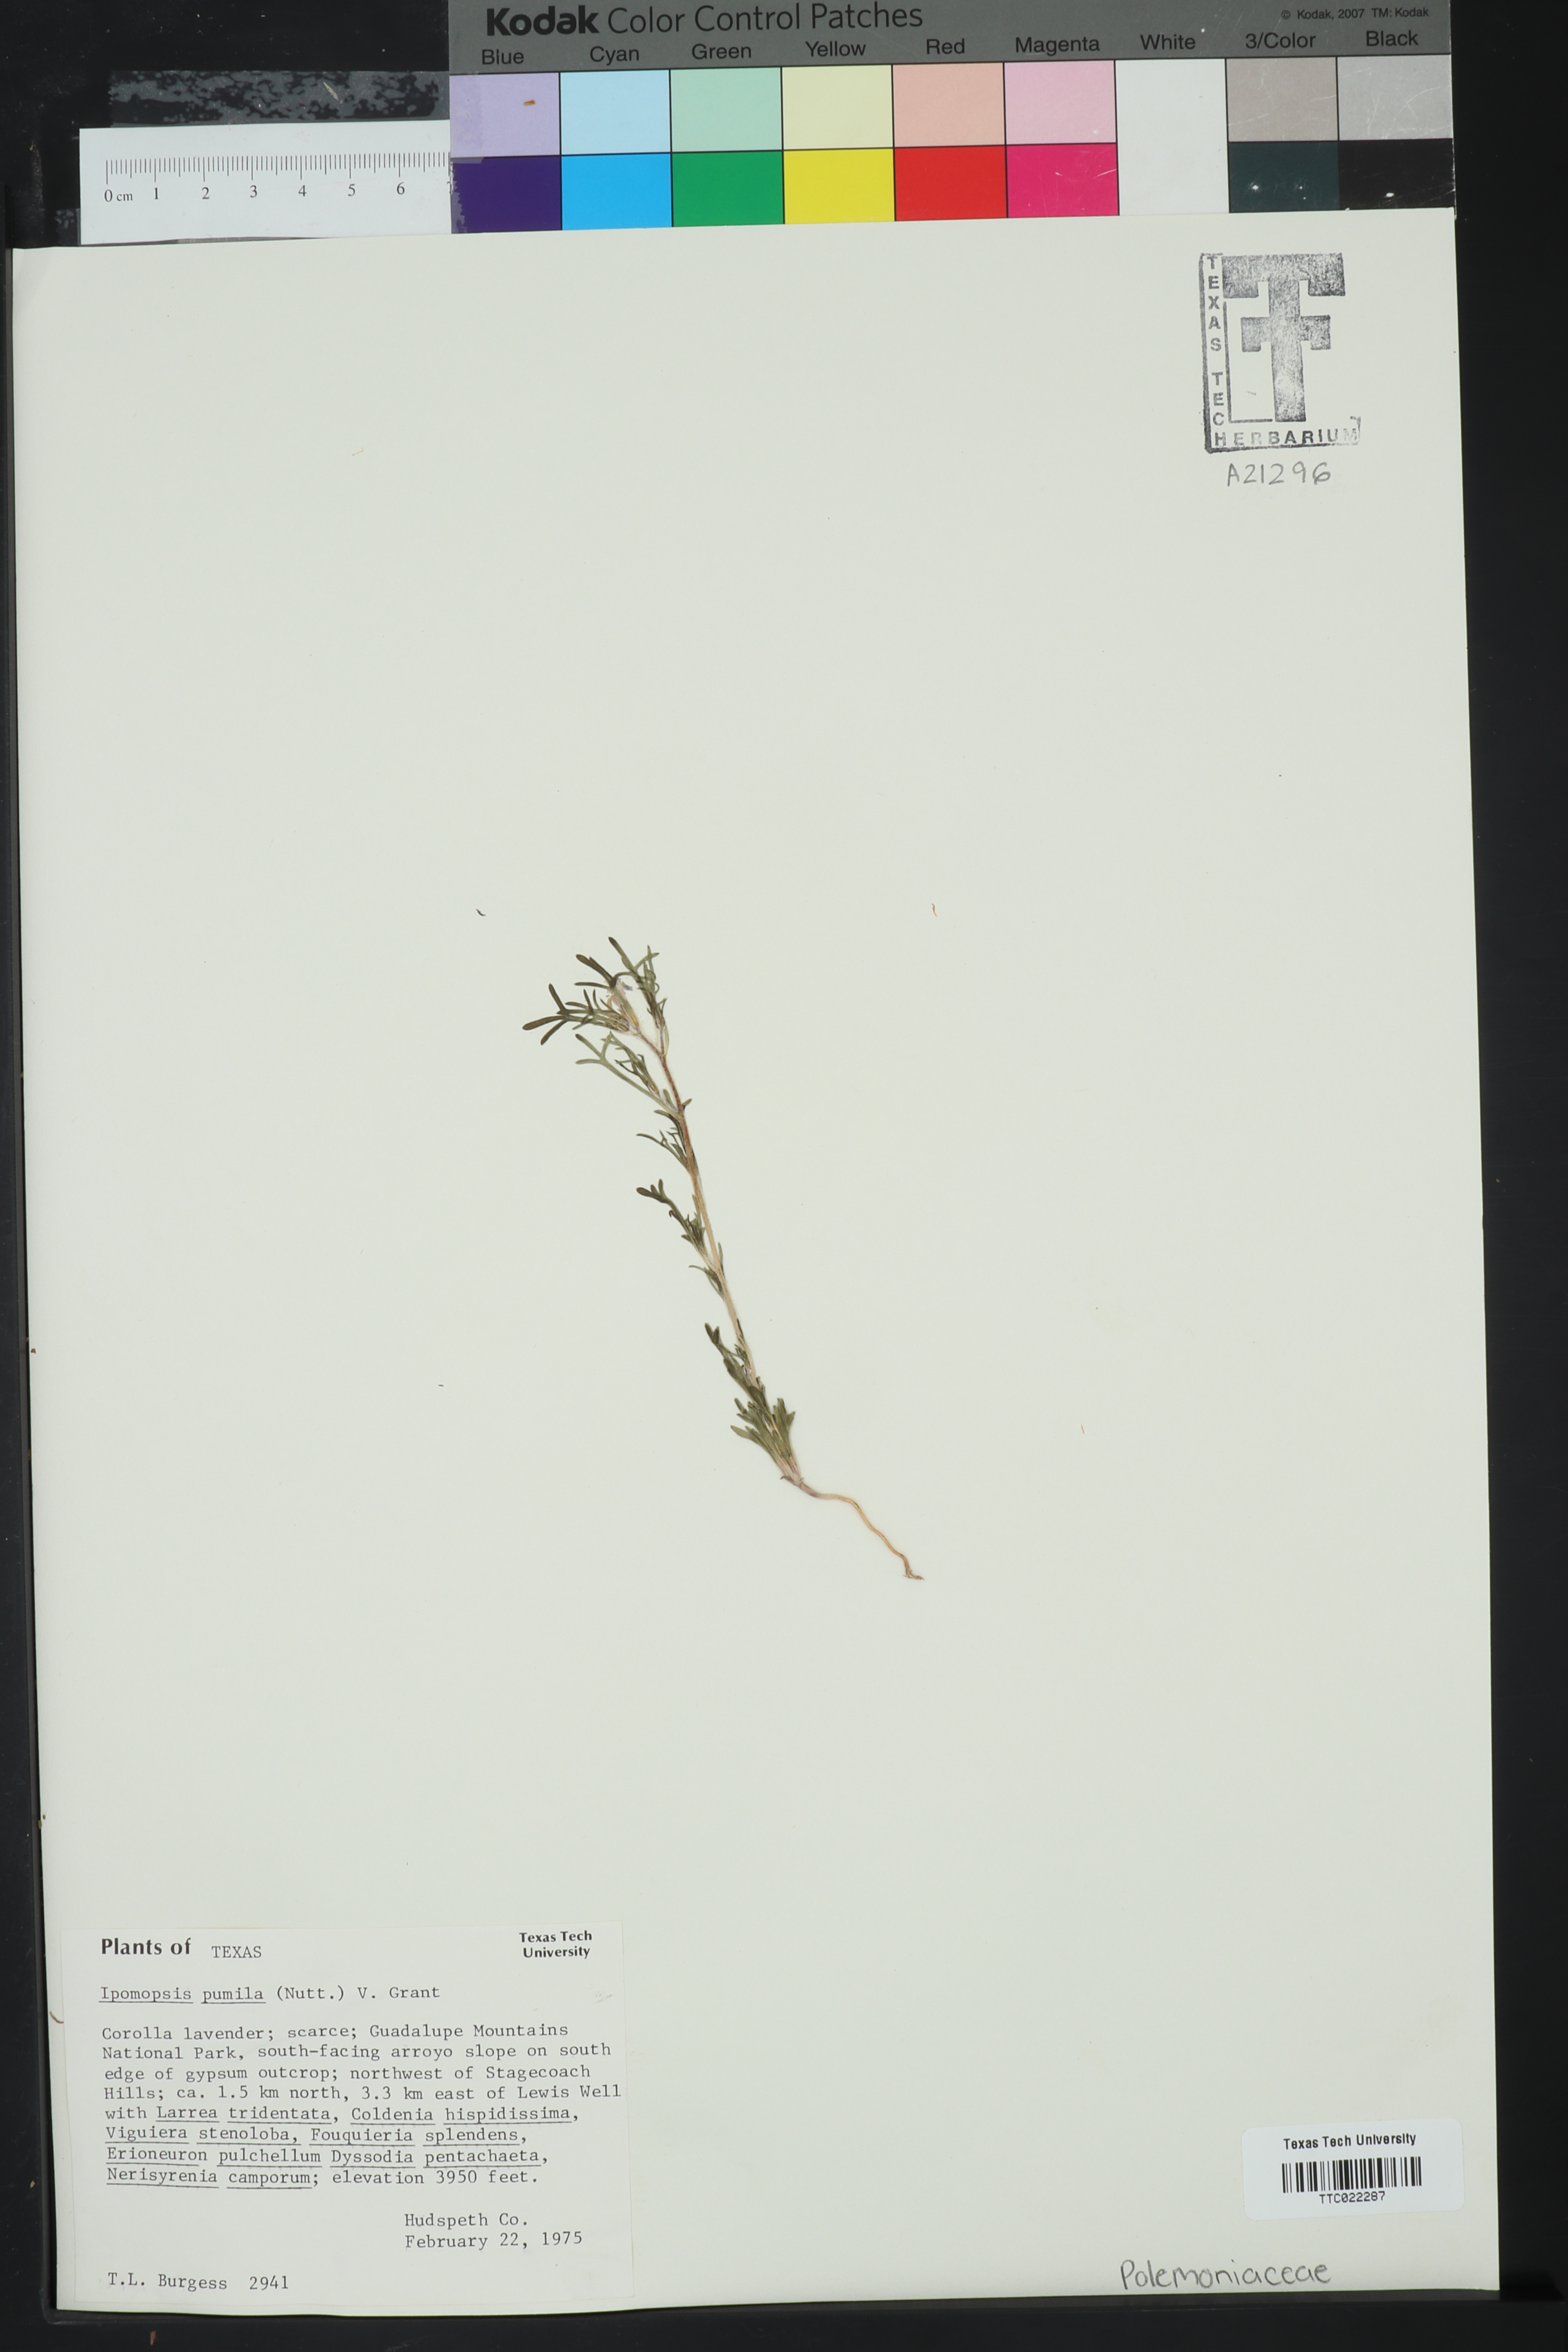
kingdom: Plantae
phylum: Tracheophyta
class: Magnoliopsida
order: Ericales
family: Polemoniaceae
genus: Ipomopsis
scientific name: Ipomopsis pumila
